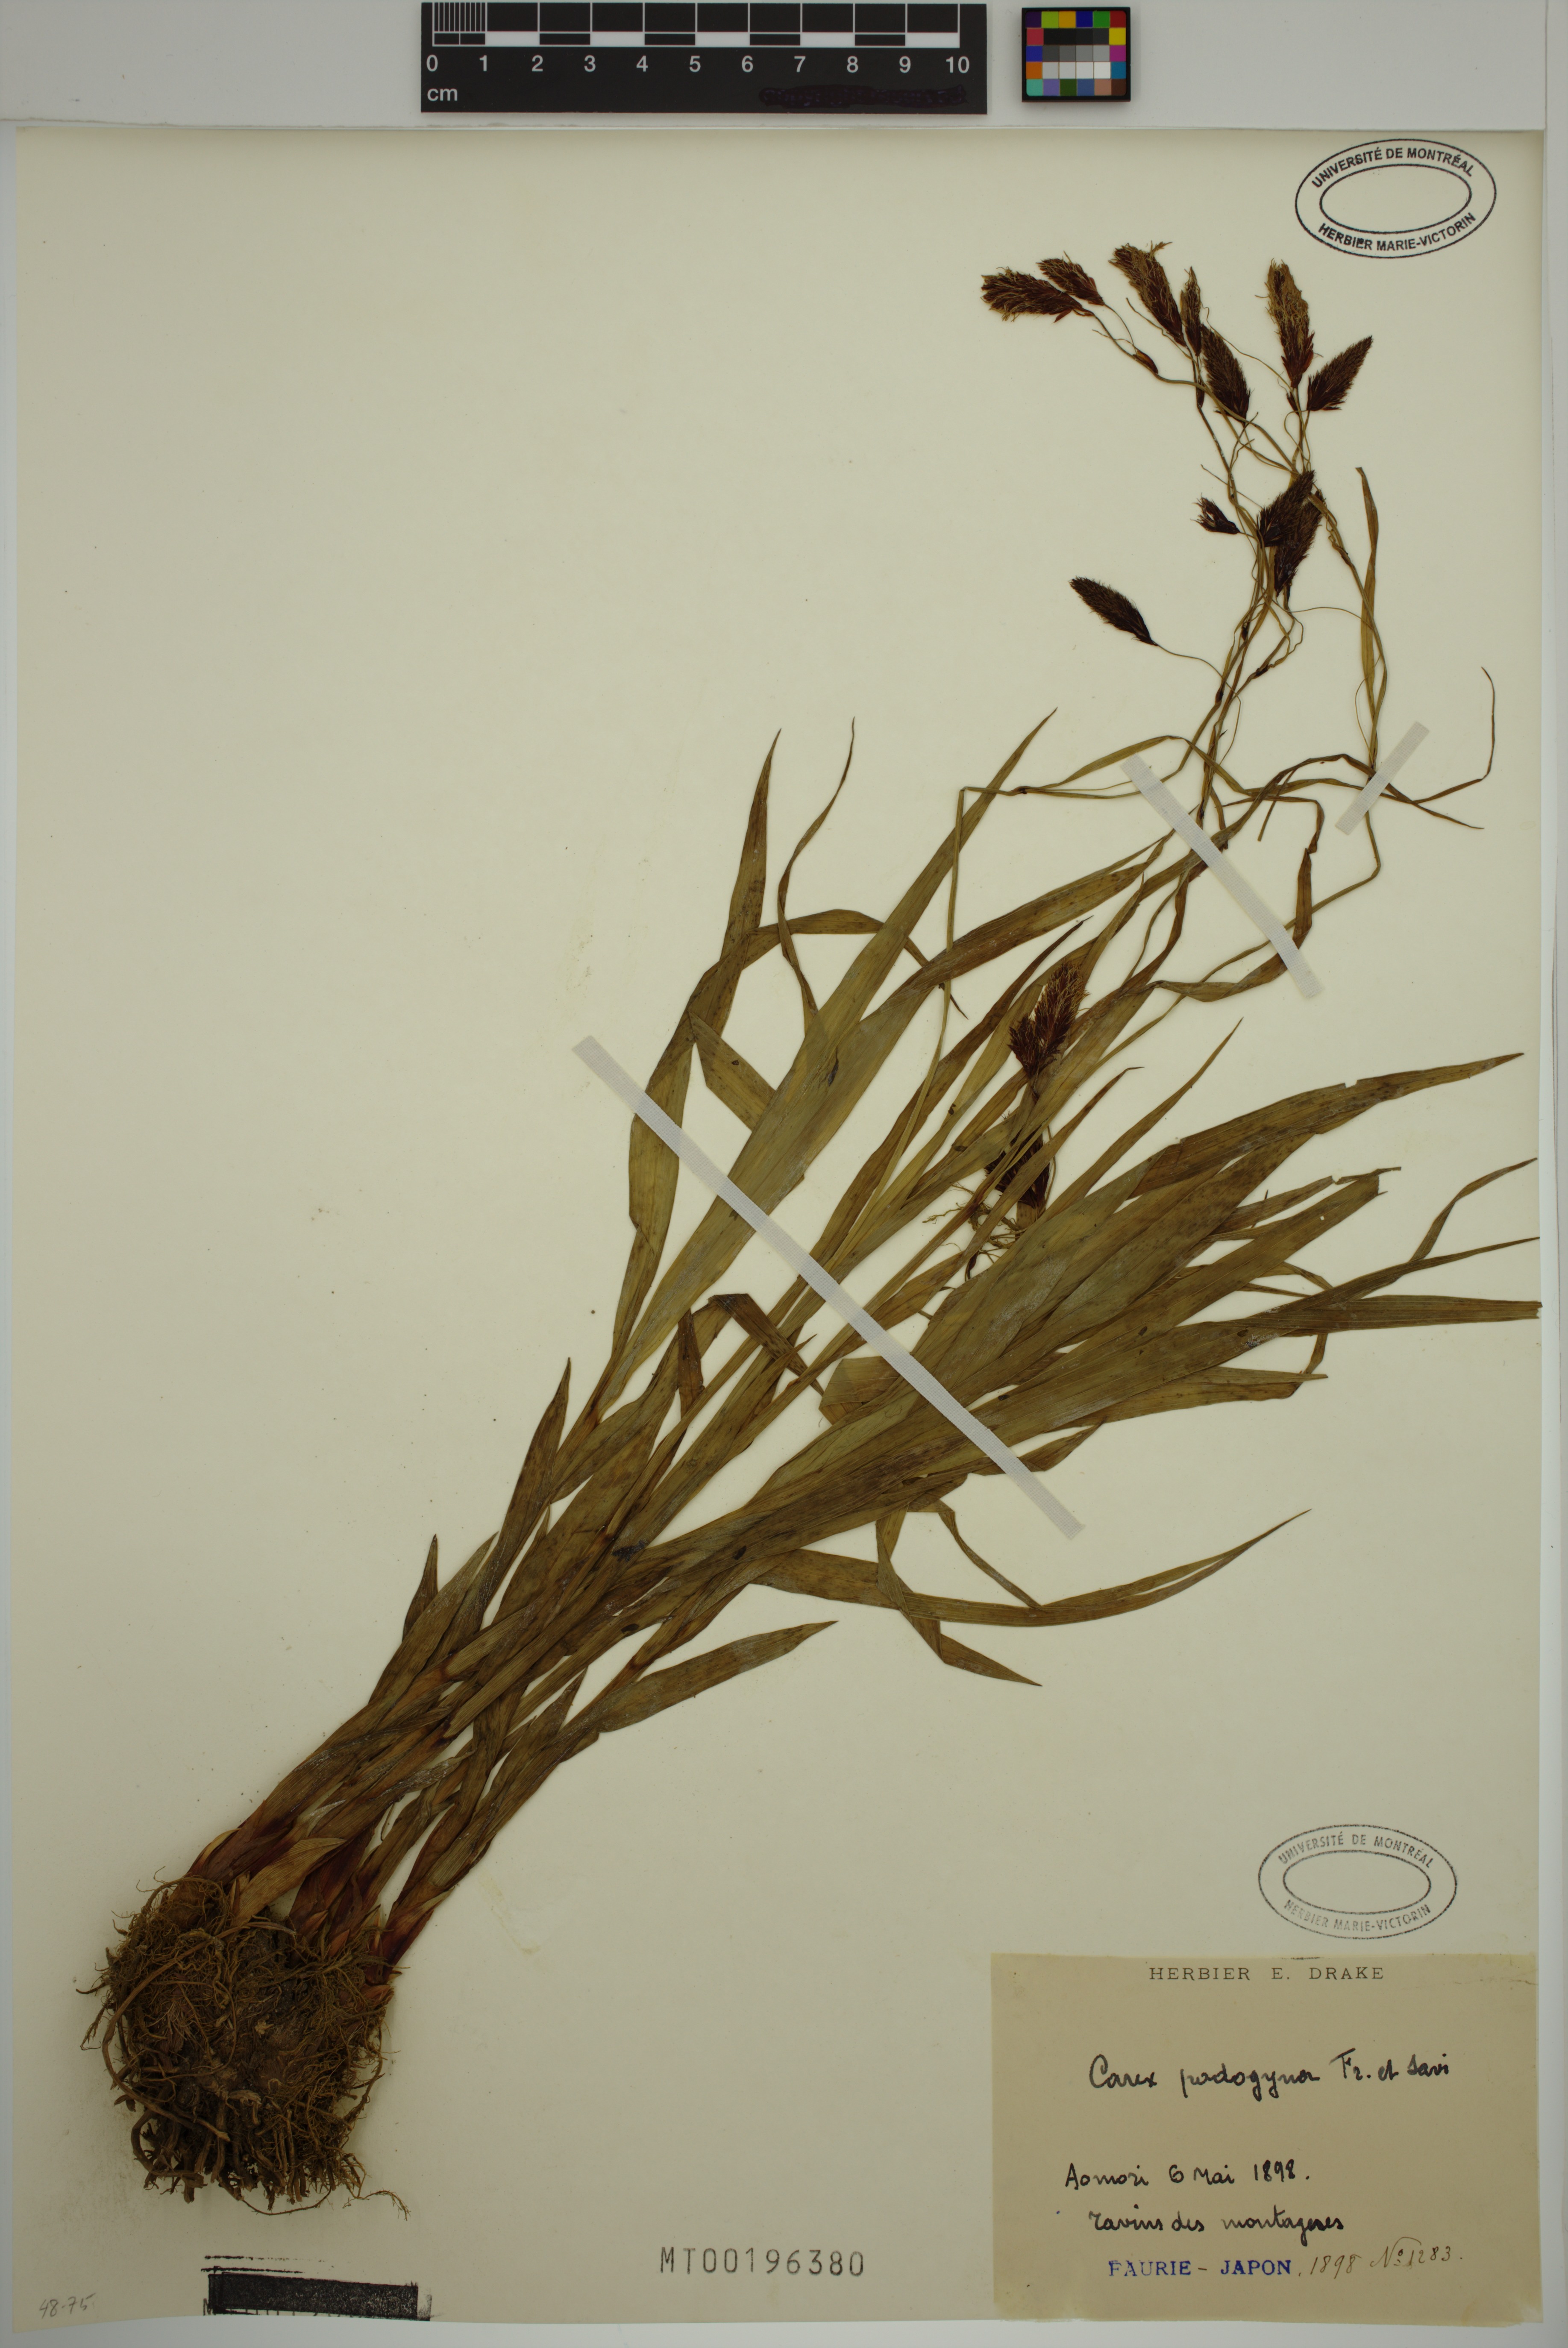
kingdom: Plantae
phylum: Tracheophyta
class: Liliopsida
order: Poales
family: Cyperaceae
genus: Carex
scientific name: Carex podogyna
